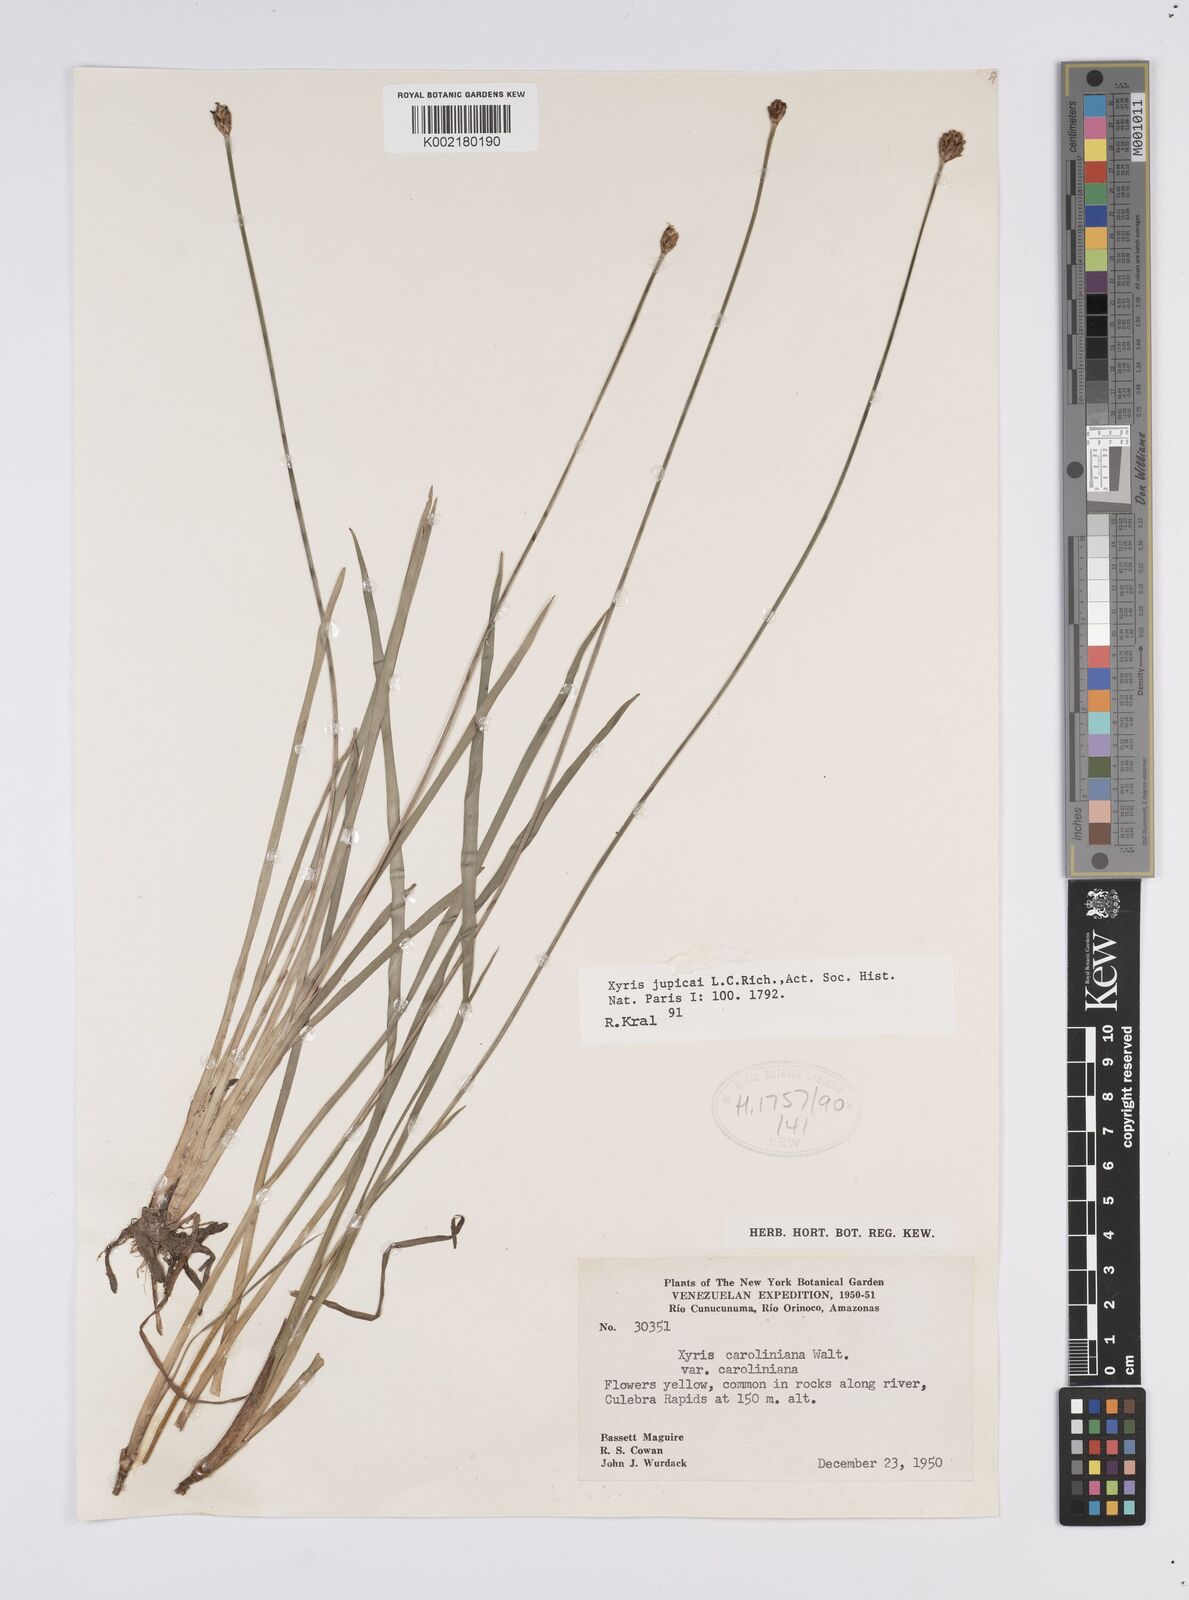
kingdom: Plantae
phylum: Tracheophyta
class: Liliopsida
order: Poales
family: Xyridaceae
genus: Xyris
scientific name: Xyris jupicai
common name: Richard's yelloweyed grass
